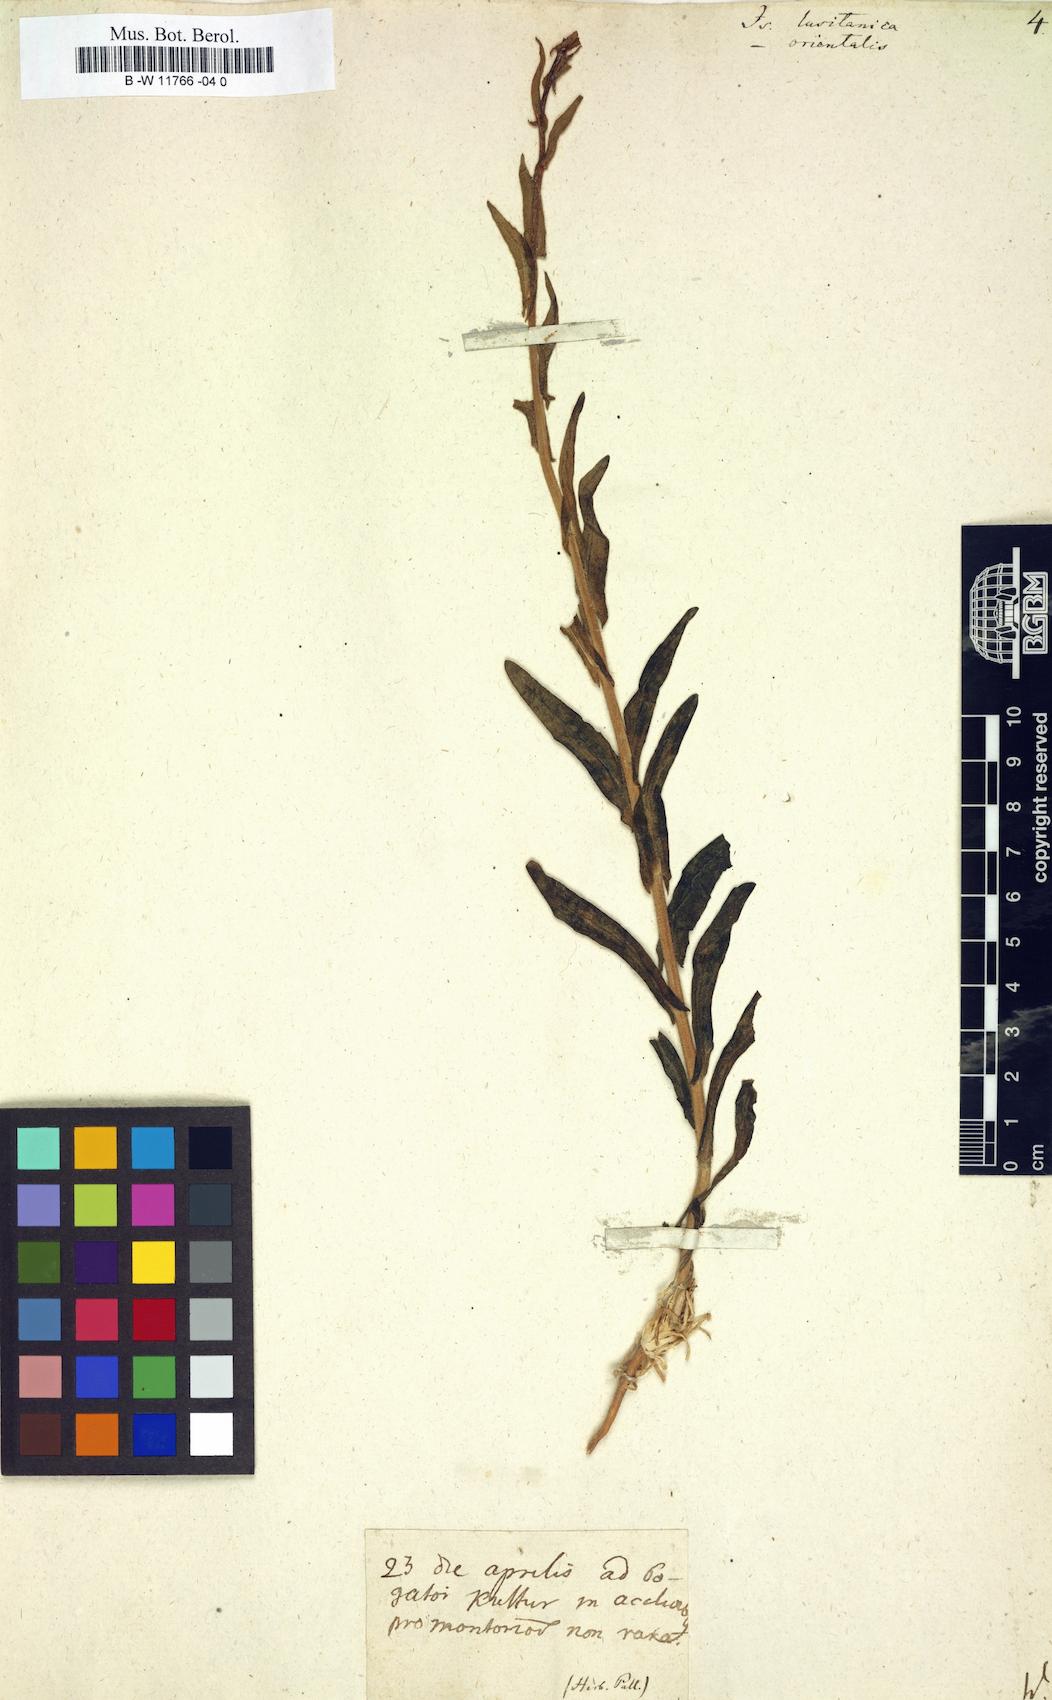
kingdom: Plantae
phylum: Tracheophyta
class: Magnoliopsida
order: Brassicales
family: Brassicaceae
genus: Isatis
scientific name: Isatis lusitanica
